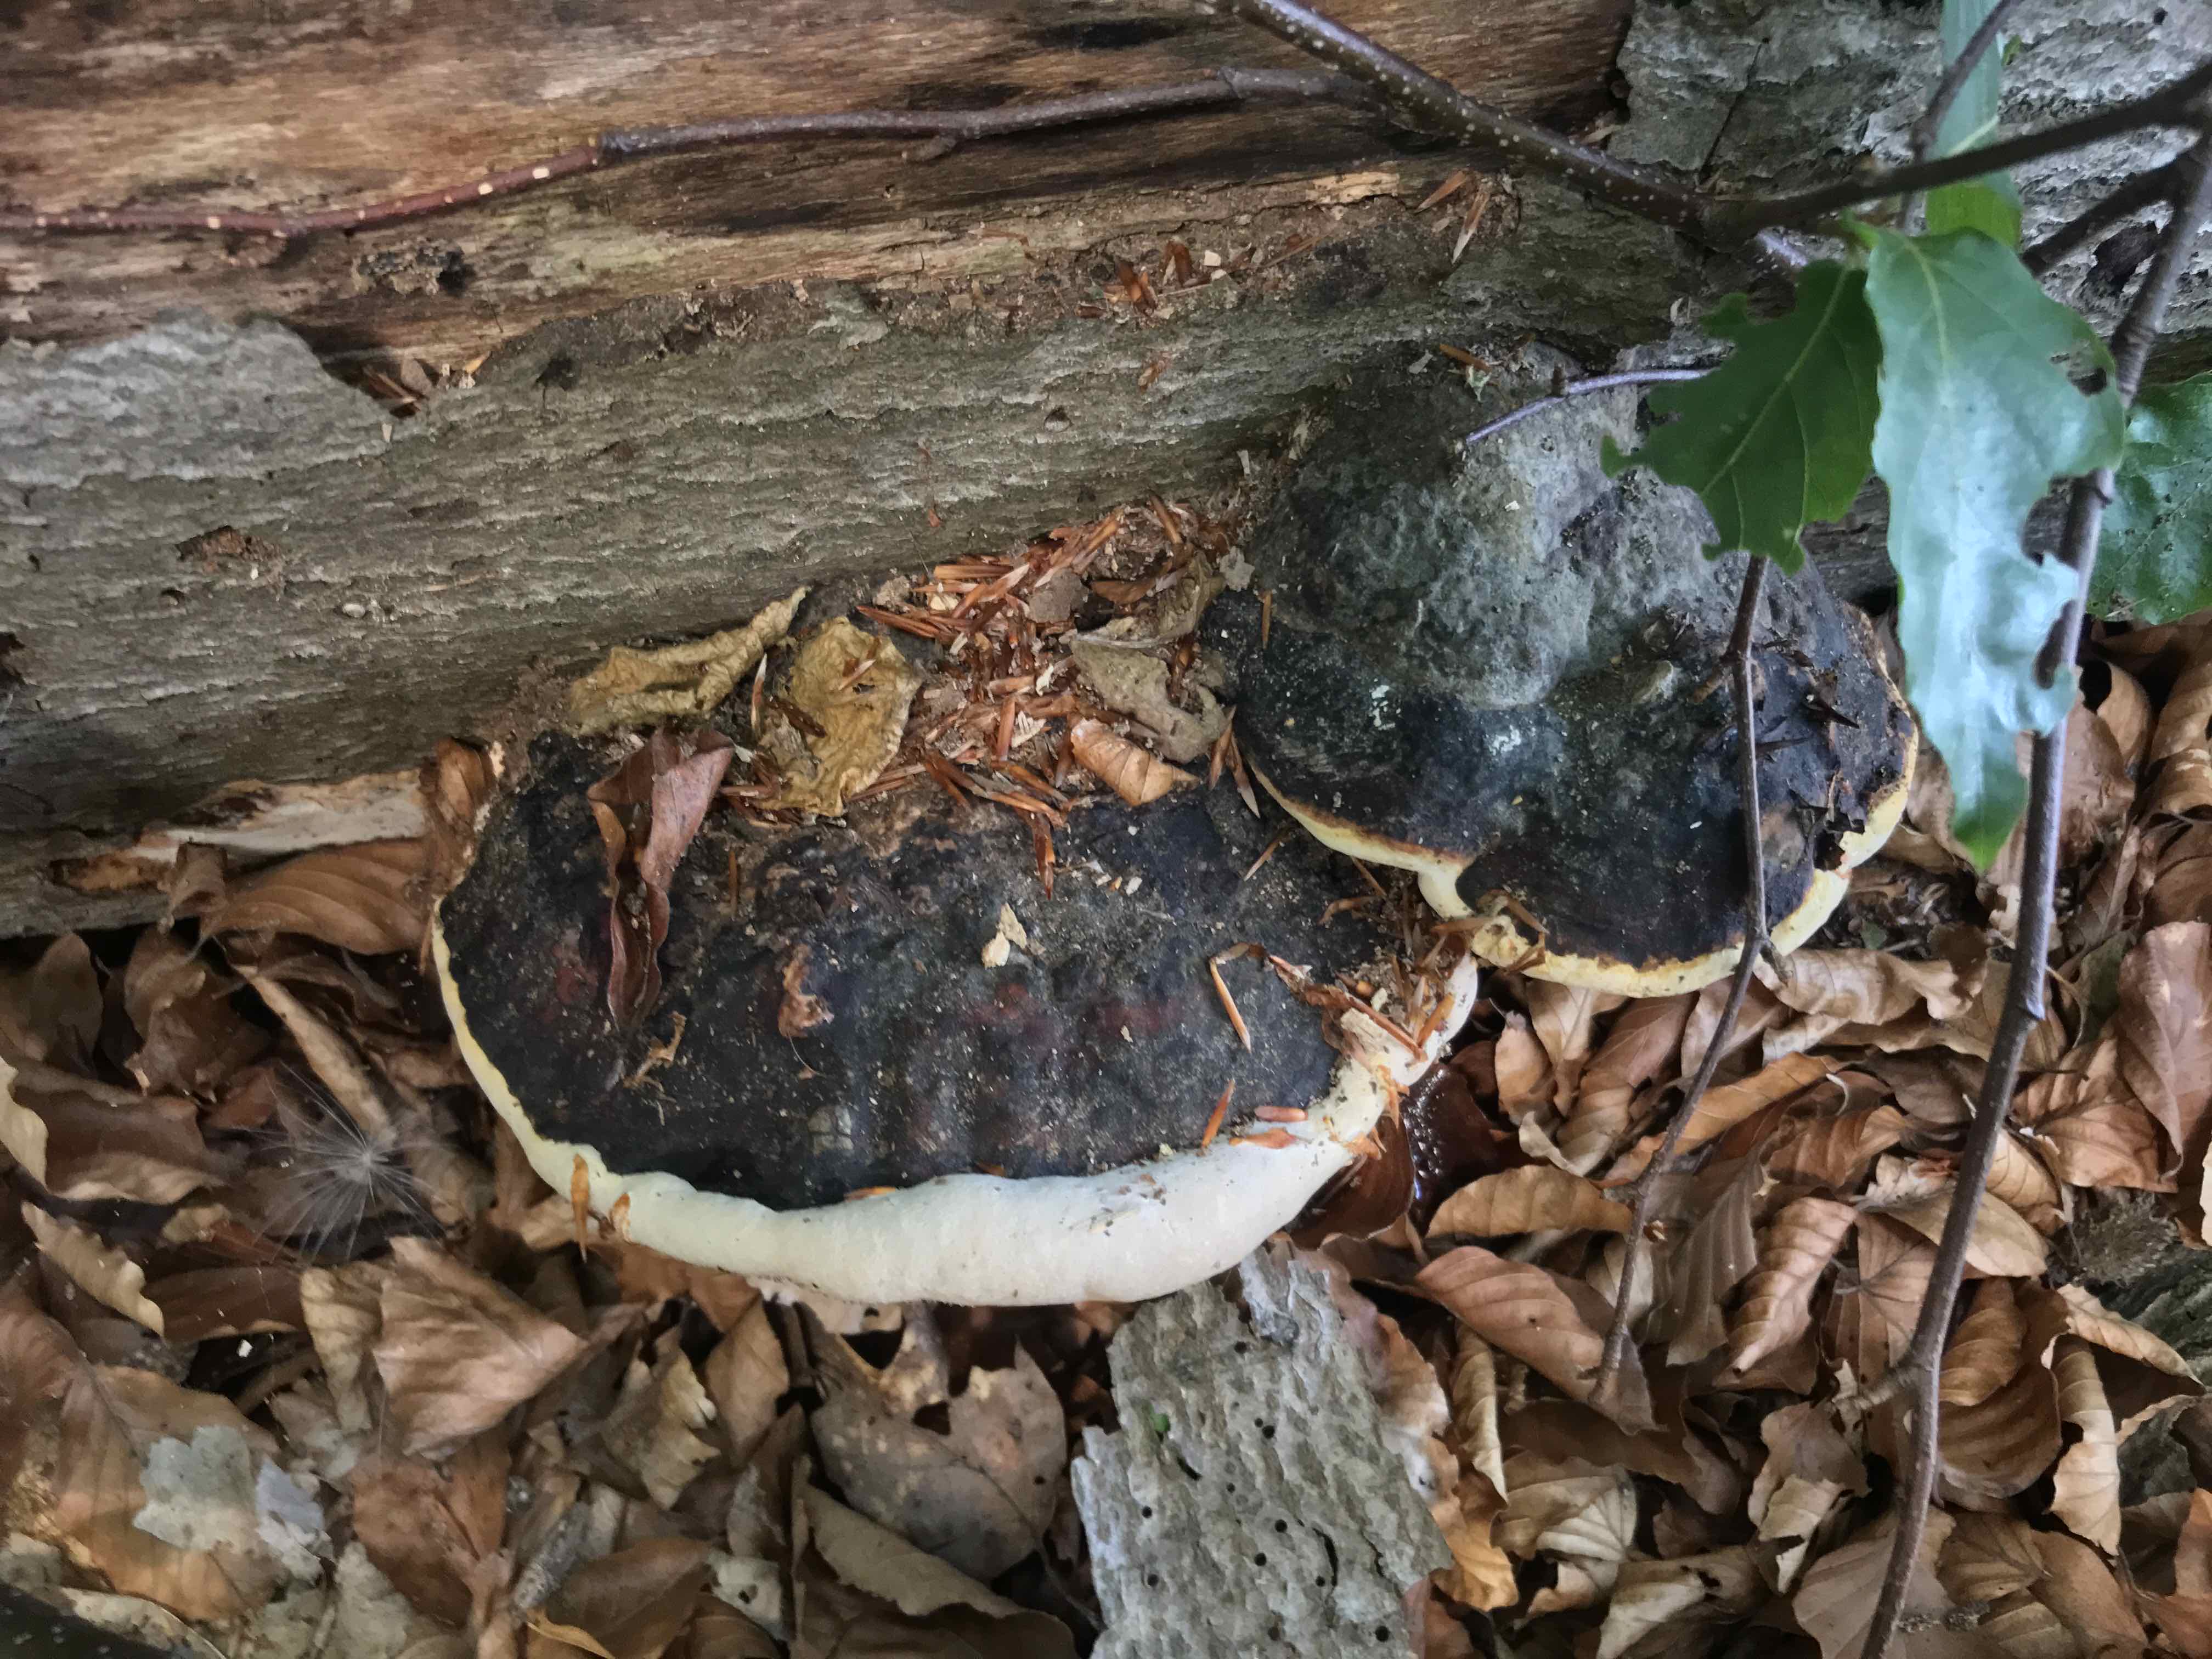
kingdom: Fungi
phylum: Basidiomycota
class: Agaricomycetes
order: Polyporales
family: Fomitopsidaceae
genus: Fomitopsis
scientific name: Fomitopsis pinicola
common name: randbæltet hovporesvamp
